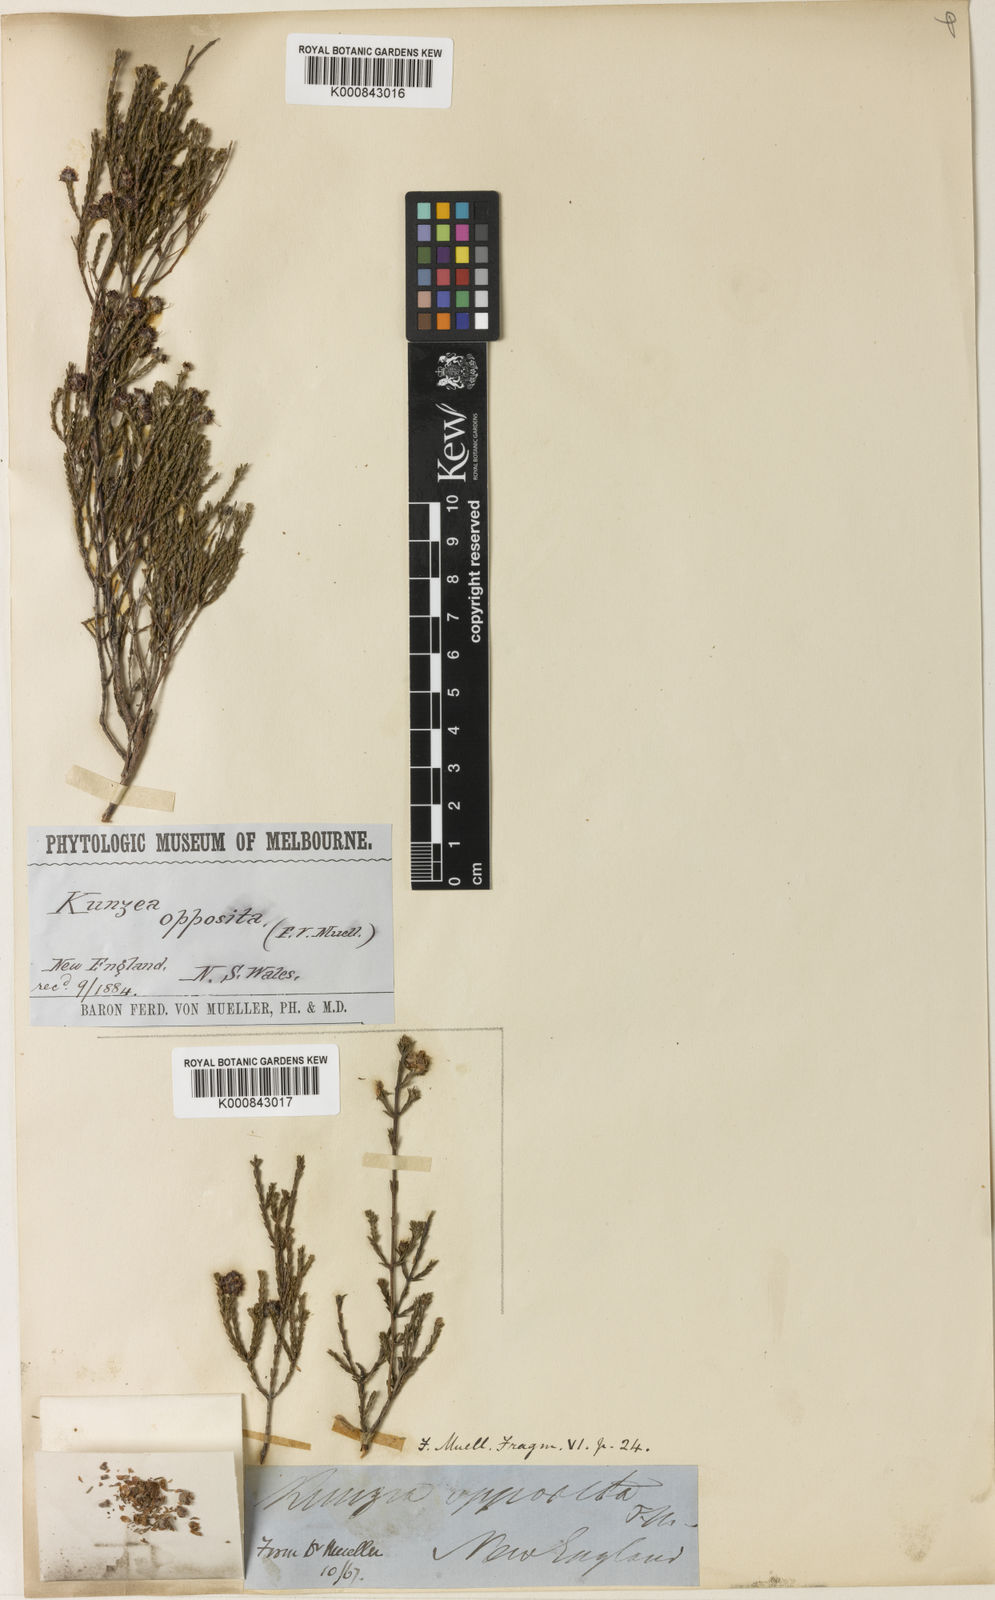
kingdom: Plantae
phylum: Tracheophyta
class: Magnoliopsida
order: Myrtales
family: Myrtaceae
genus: Kunzea
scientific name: Kunzea opposita
